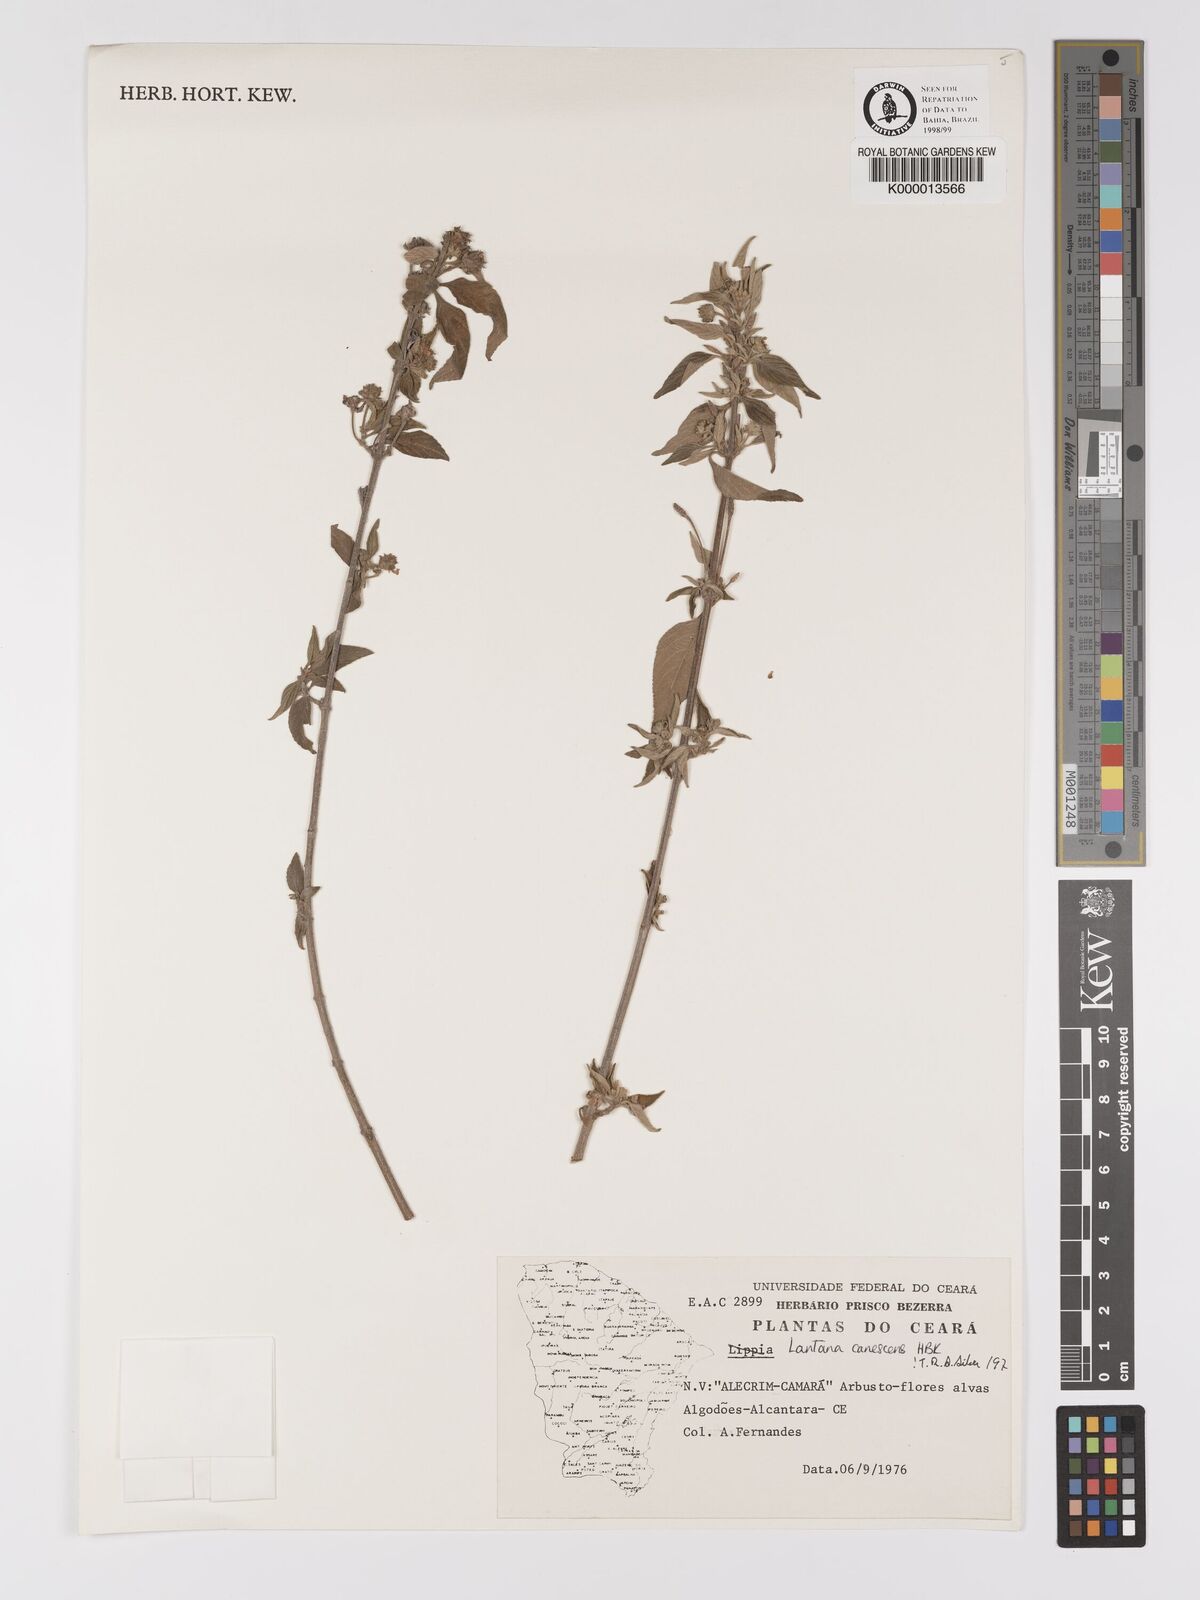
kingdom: Plantae
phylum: Tracheophyta
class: Magnoliopsida
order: Lamiales
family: Verbenaceae
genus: Lantana
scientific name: Lantana canescens
